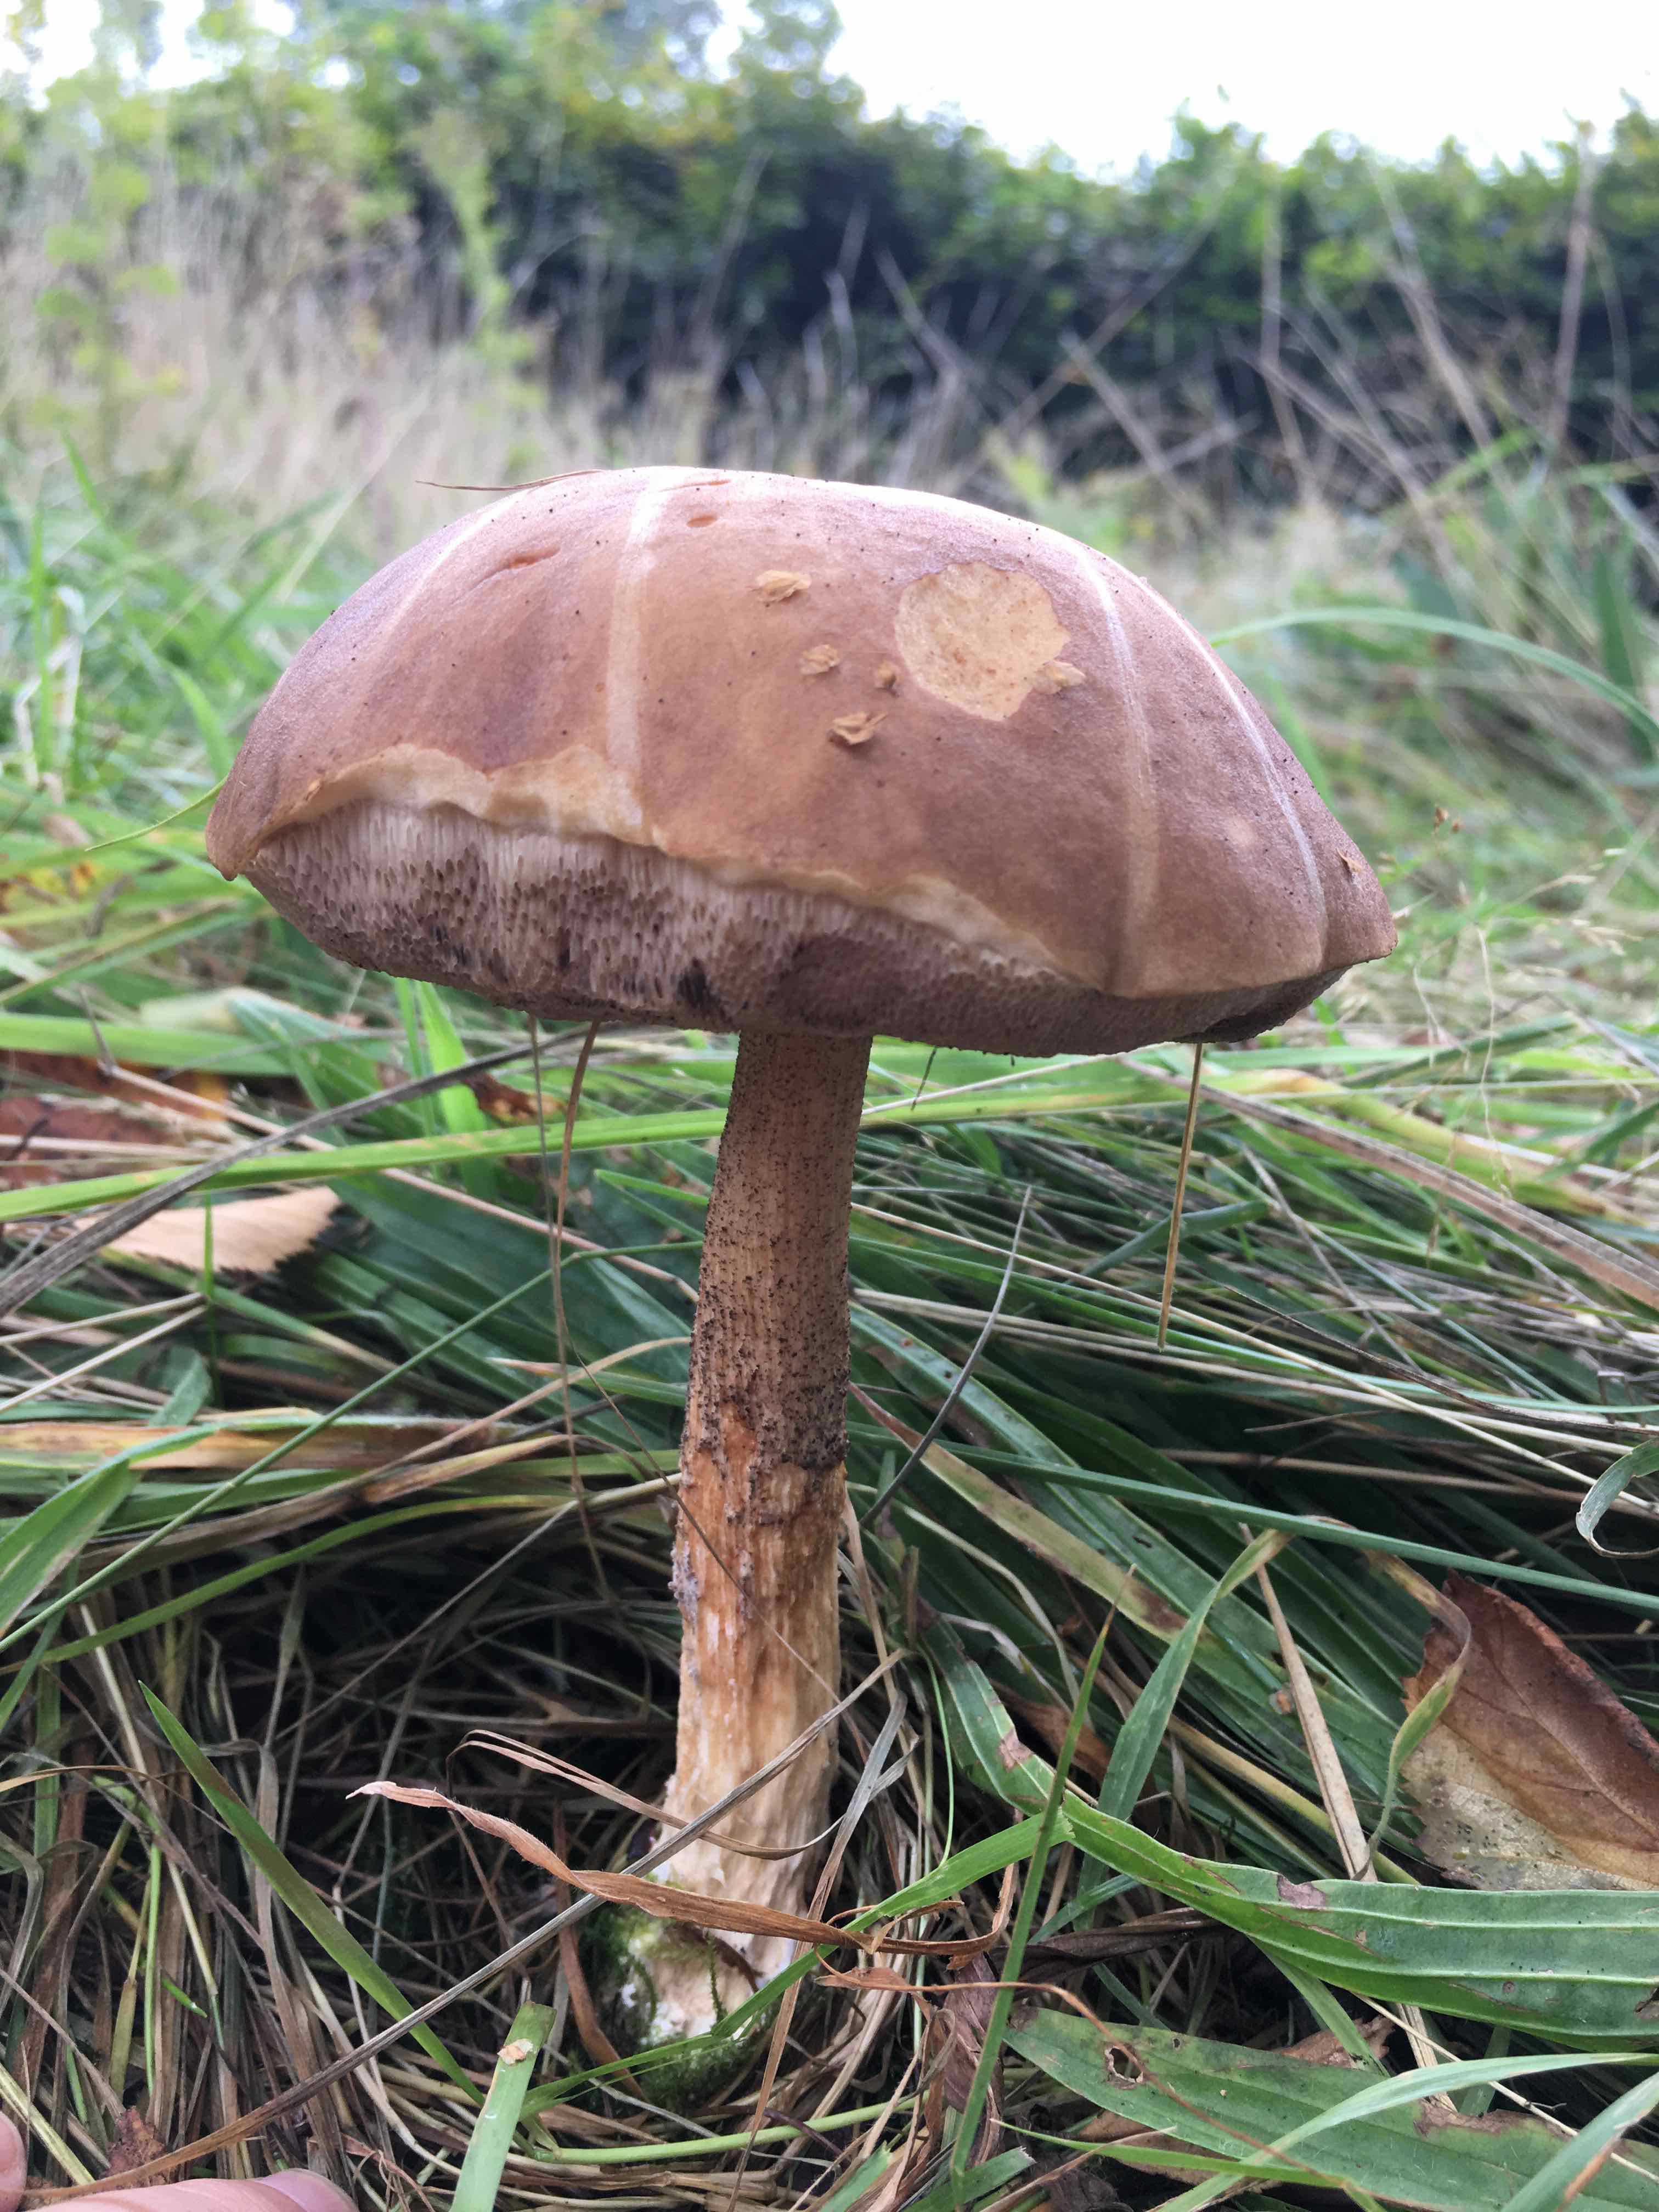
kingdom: Fungi
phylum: Basidiomycota
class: Agaricomycetes
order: Boletales
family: Boletaceae
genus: Leccinum
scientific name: Leccinum
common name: skælrørhat
